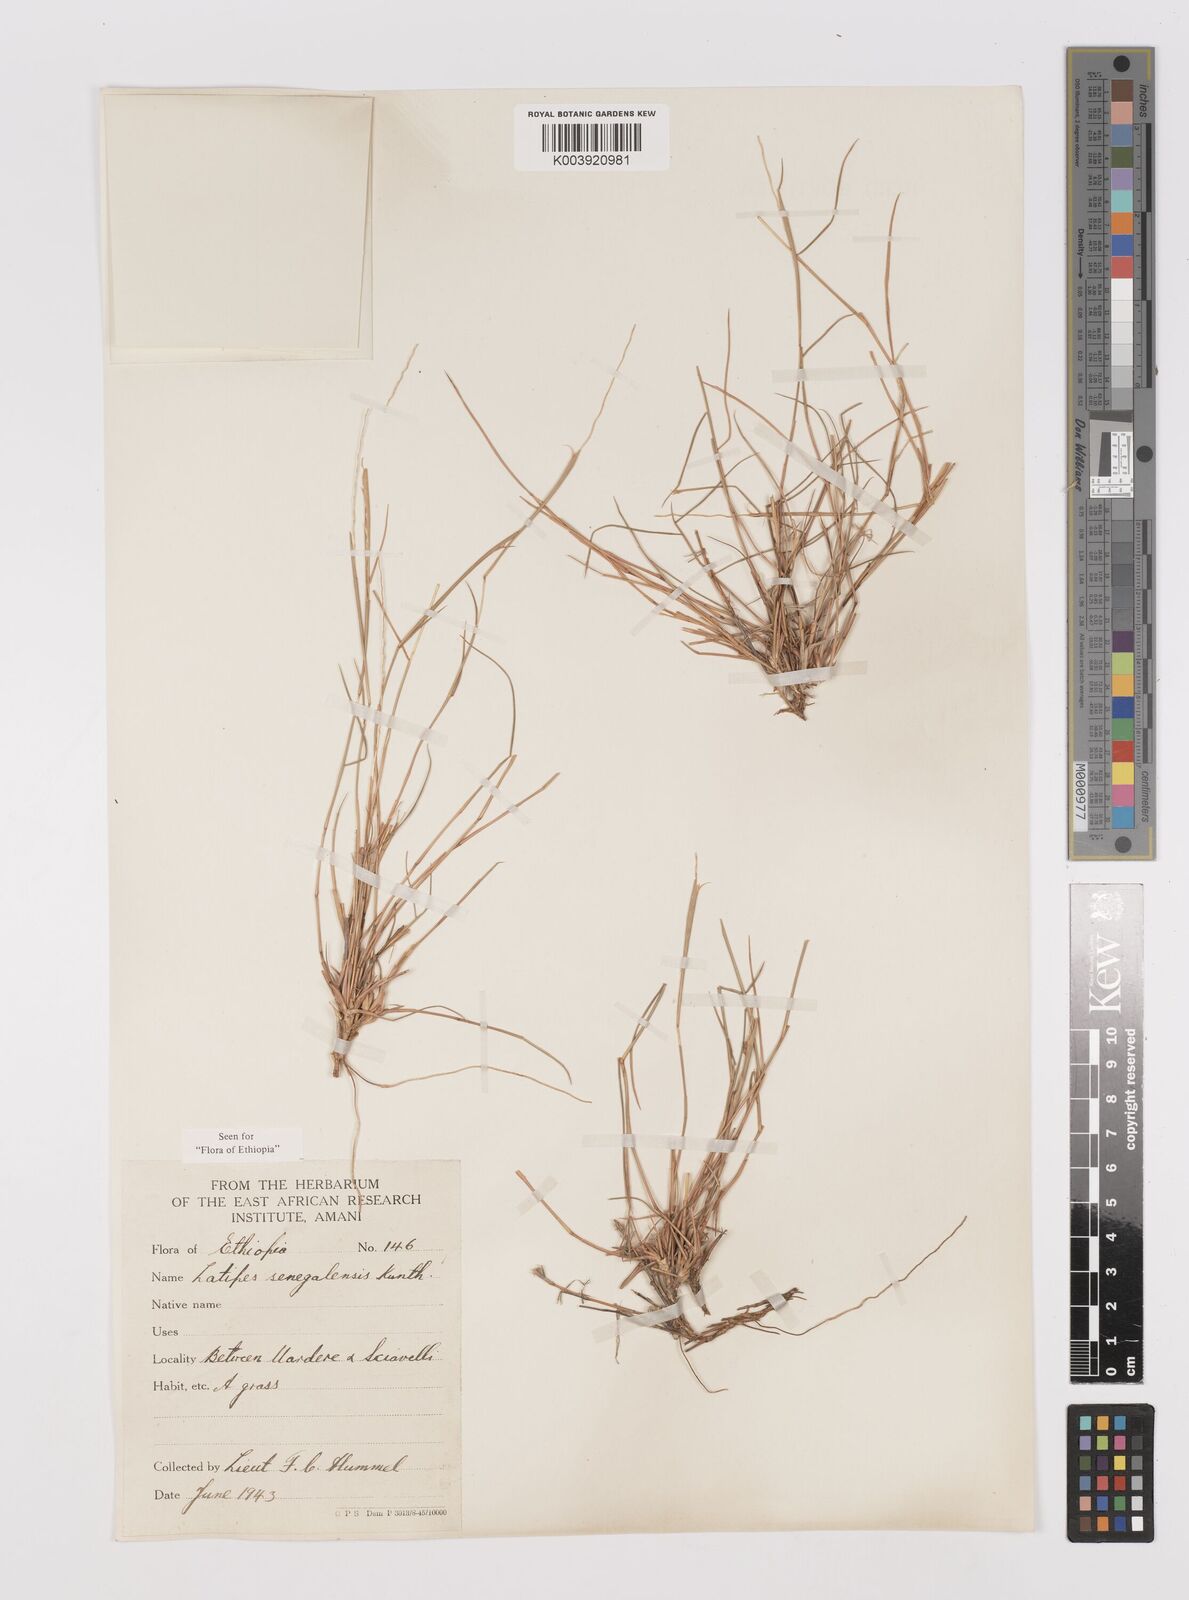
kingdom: Plantae
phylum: Tracheophyta
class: Liliopsida
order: Poales
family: Poaceae
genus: Leptothrium
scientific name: Leptothrium senegalense
